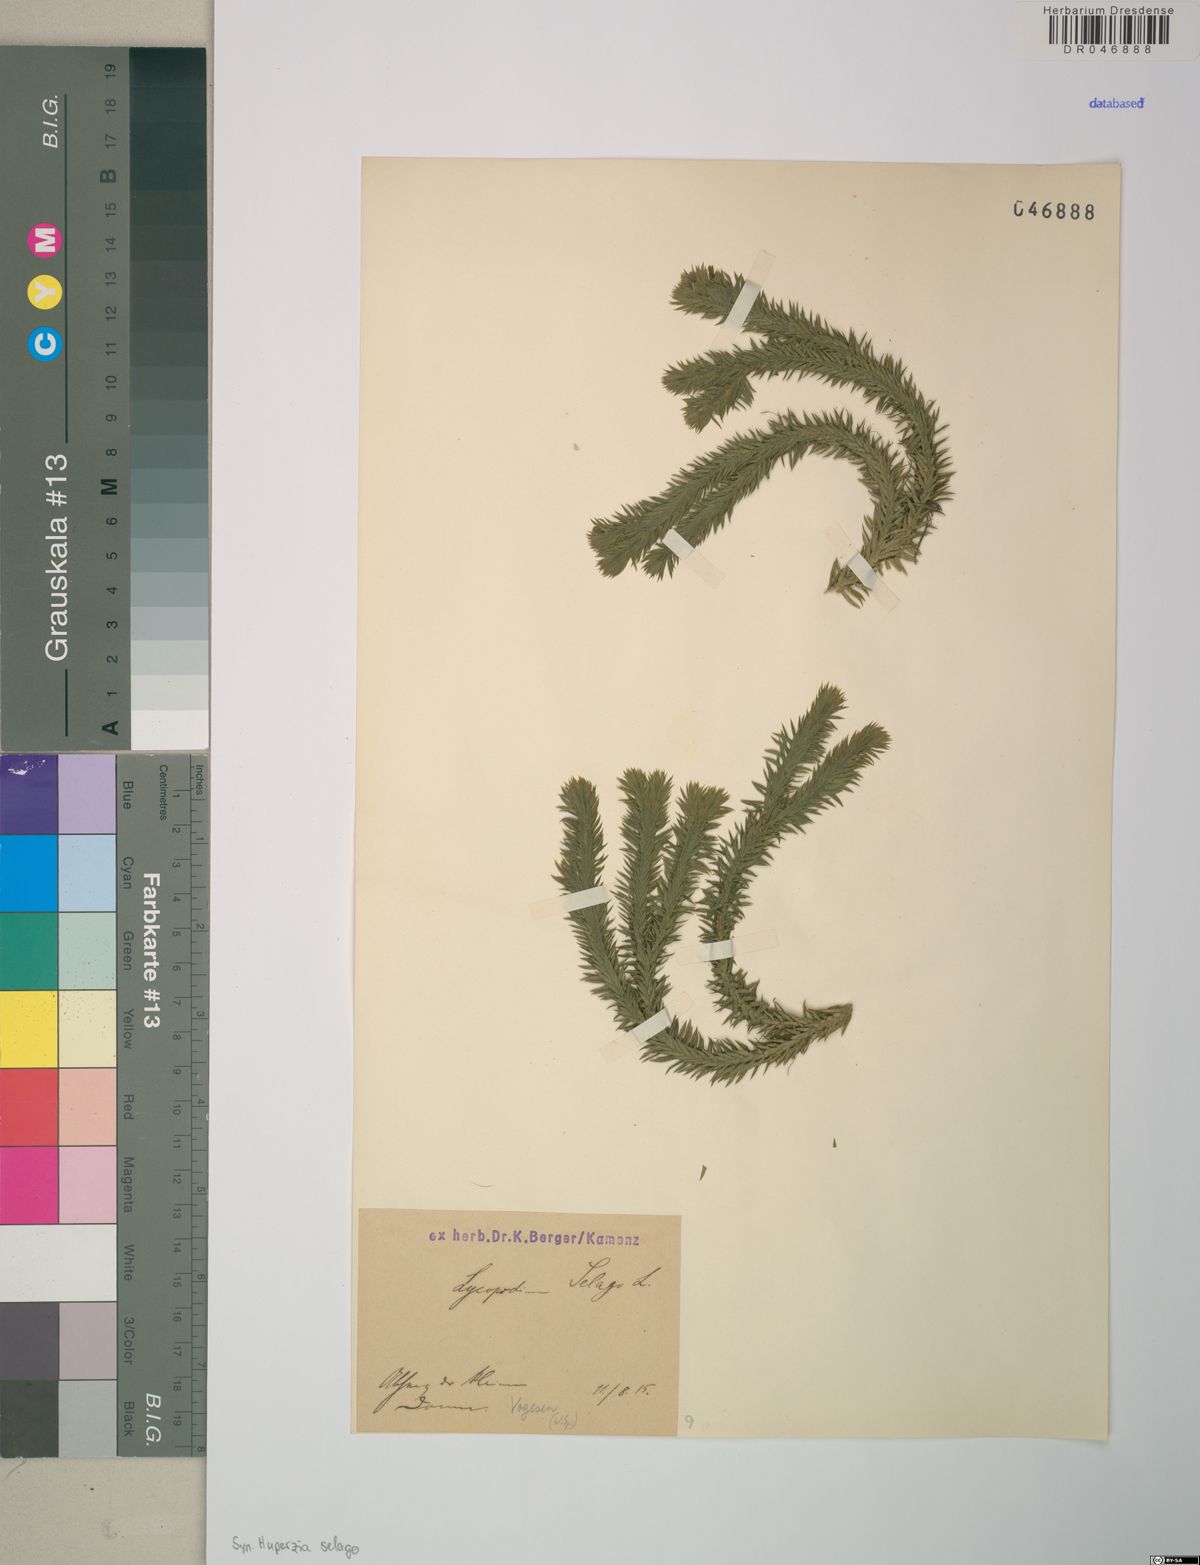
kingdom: Plantae
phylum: Tracheophyta
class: Lycopodiopsida
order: Lycopodiales
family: Lycopodiaceae
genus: Huperzia
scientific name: Huperzia selago
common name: Northern firmoss
